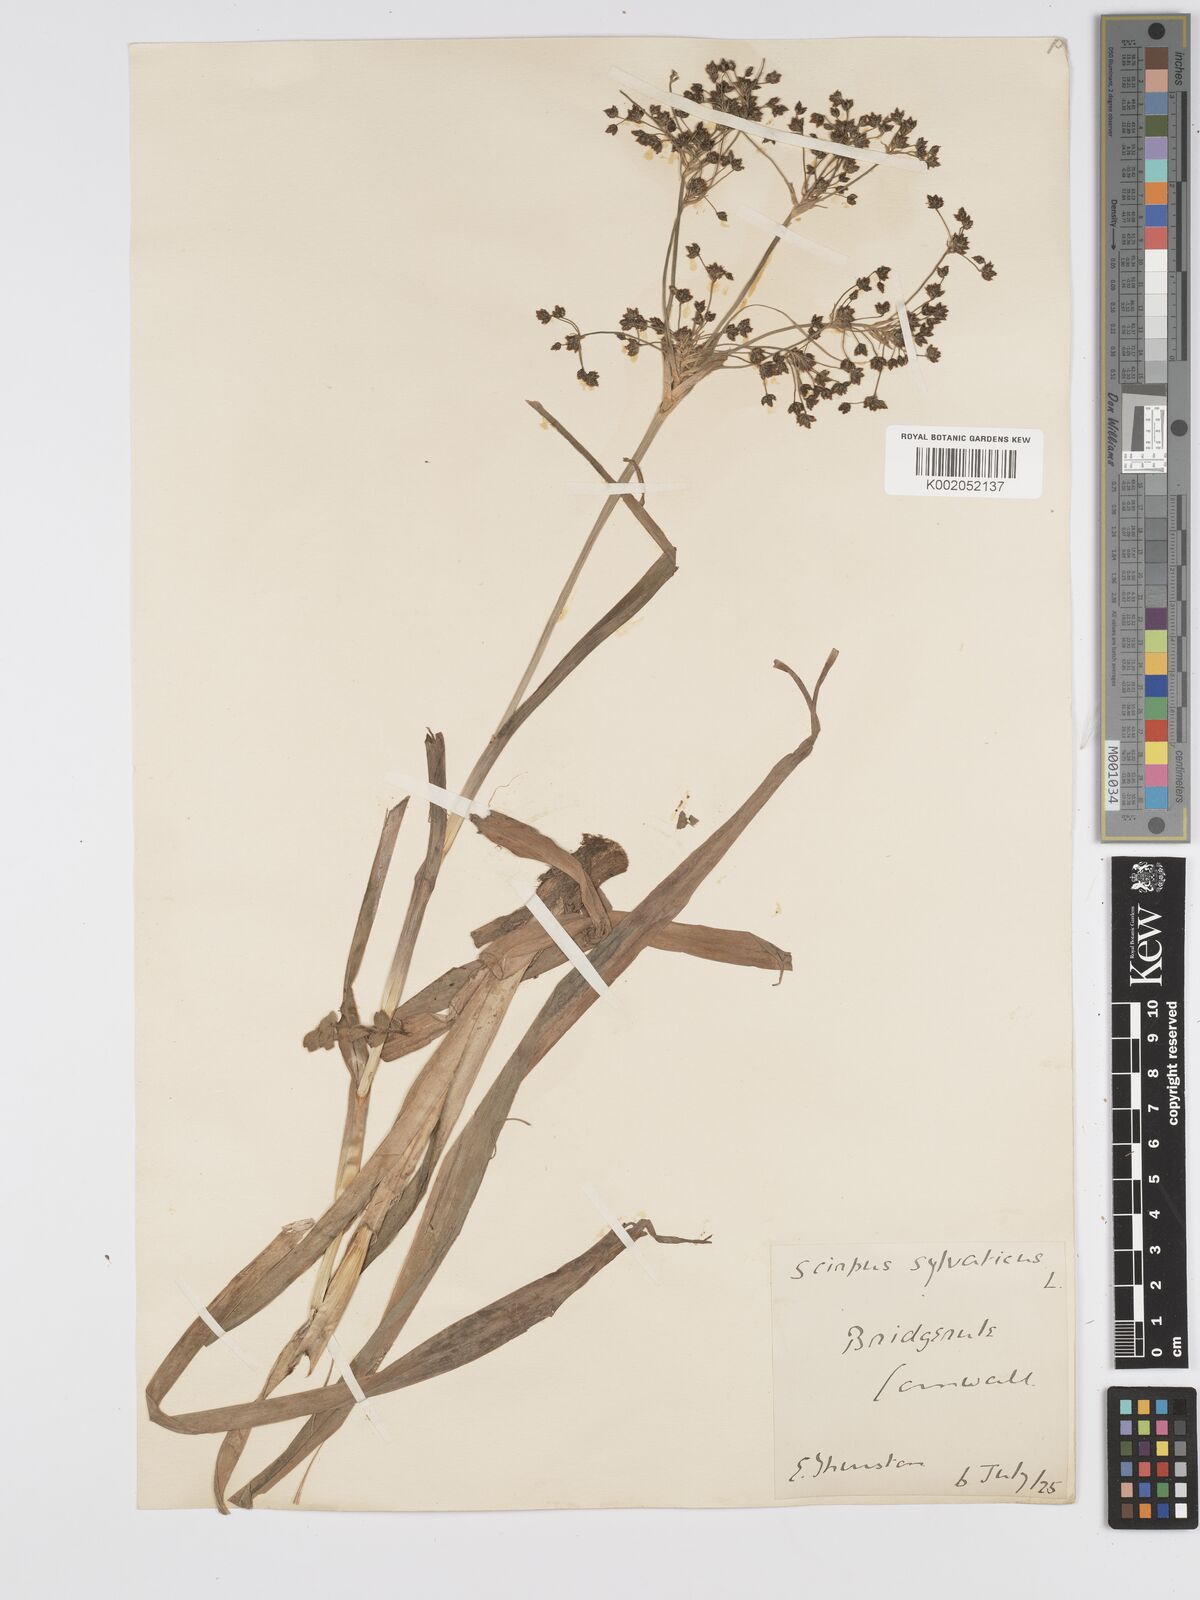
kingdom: Plantae
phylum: Tracheophyta
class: Liliopsida
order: Poales
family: Cyperaceae
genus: Scirpus
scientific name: Scirpus sylvaticus
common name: Wood club-rush
